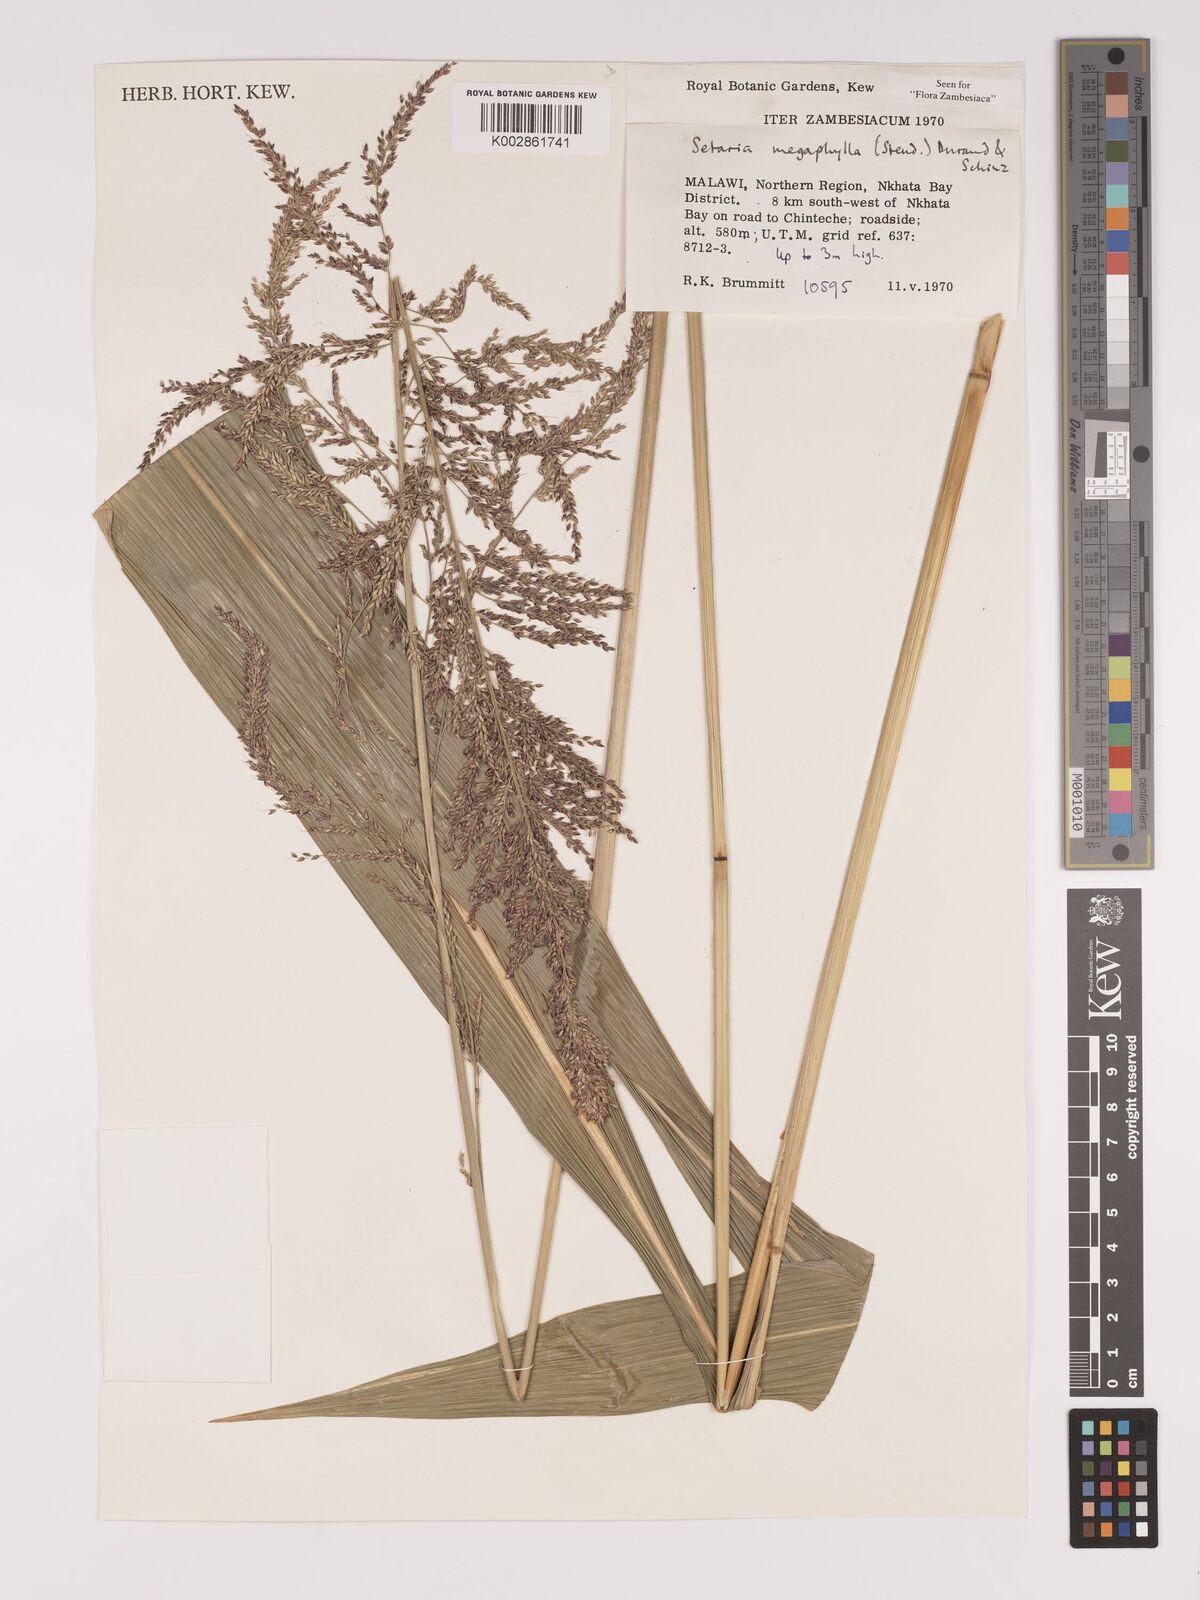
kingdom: Plantae
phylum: Tracheophyta
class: Liliopsida
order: Poales
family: Poaceae
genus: Setaria
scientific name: Setaria megaphylla
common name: Bigleaf bristlegrass
